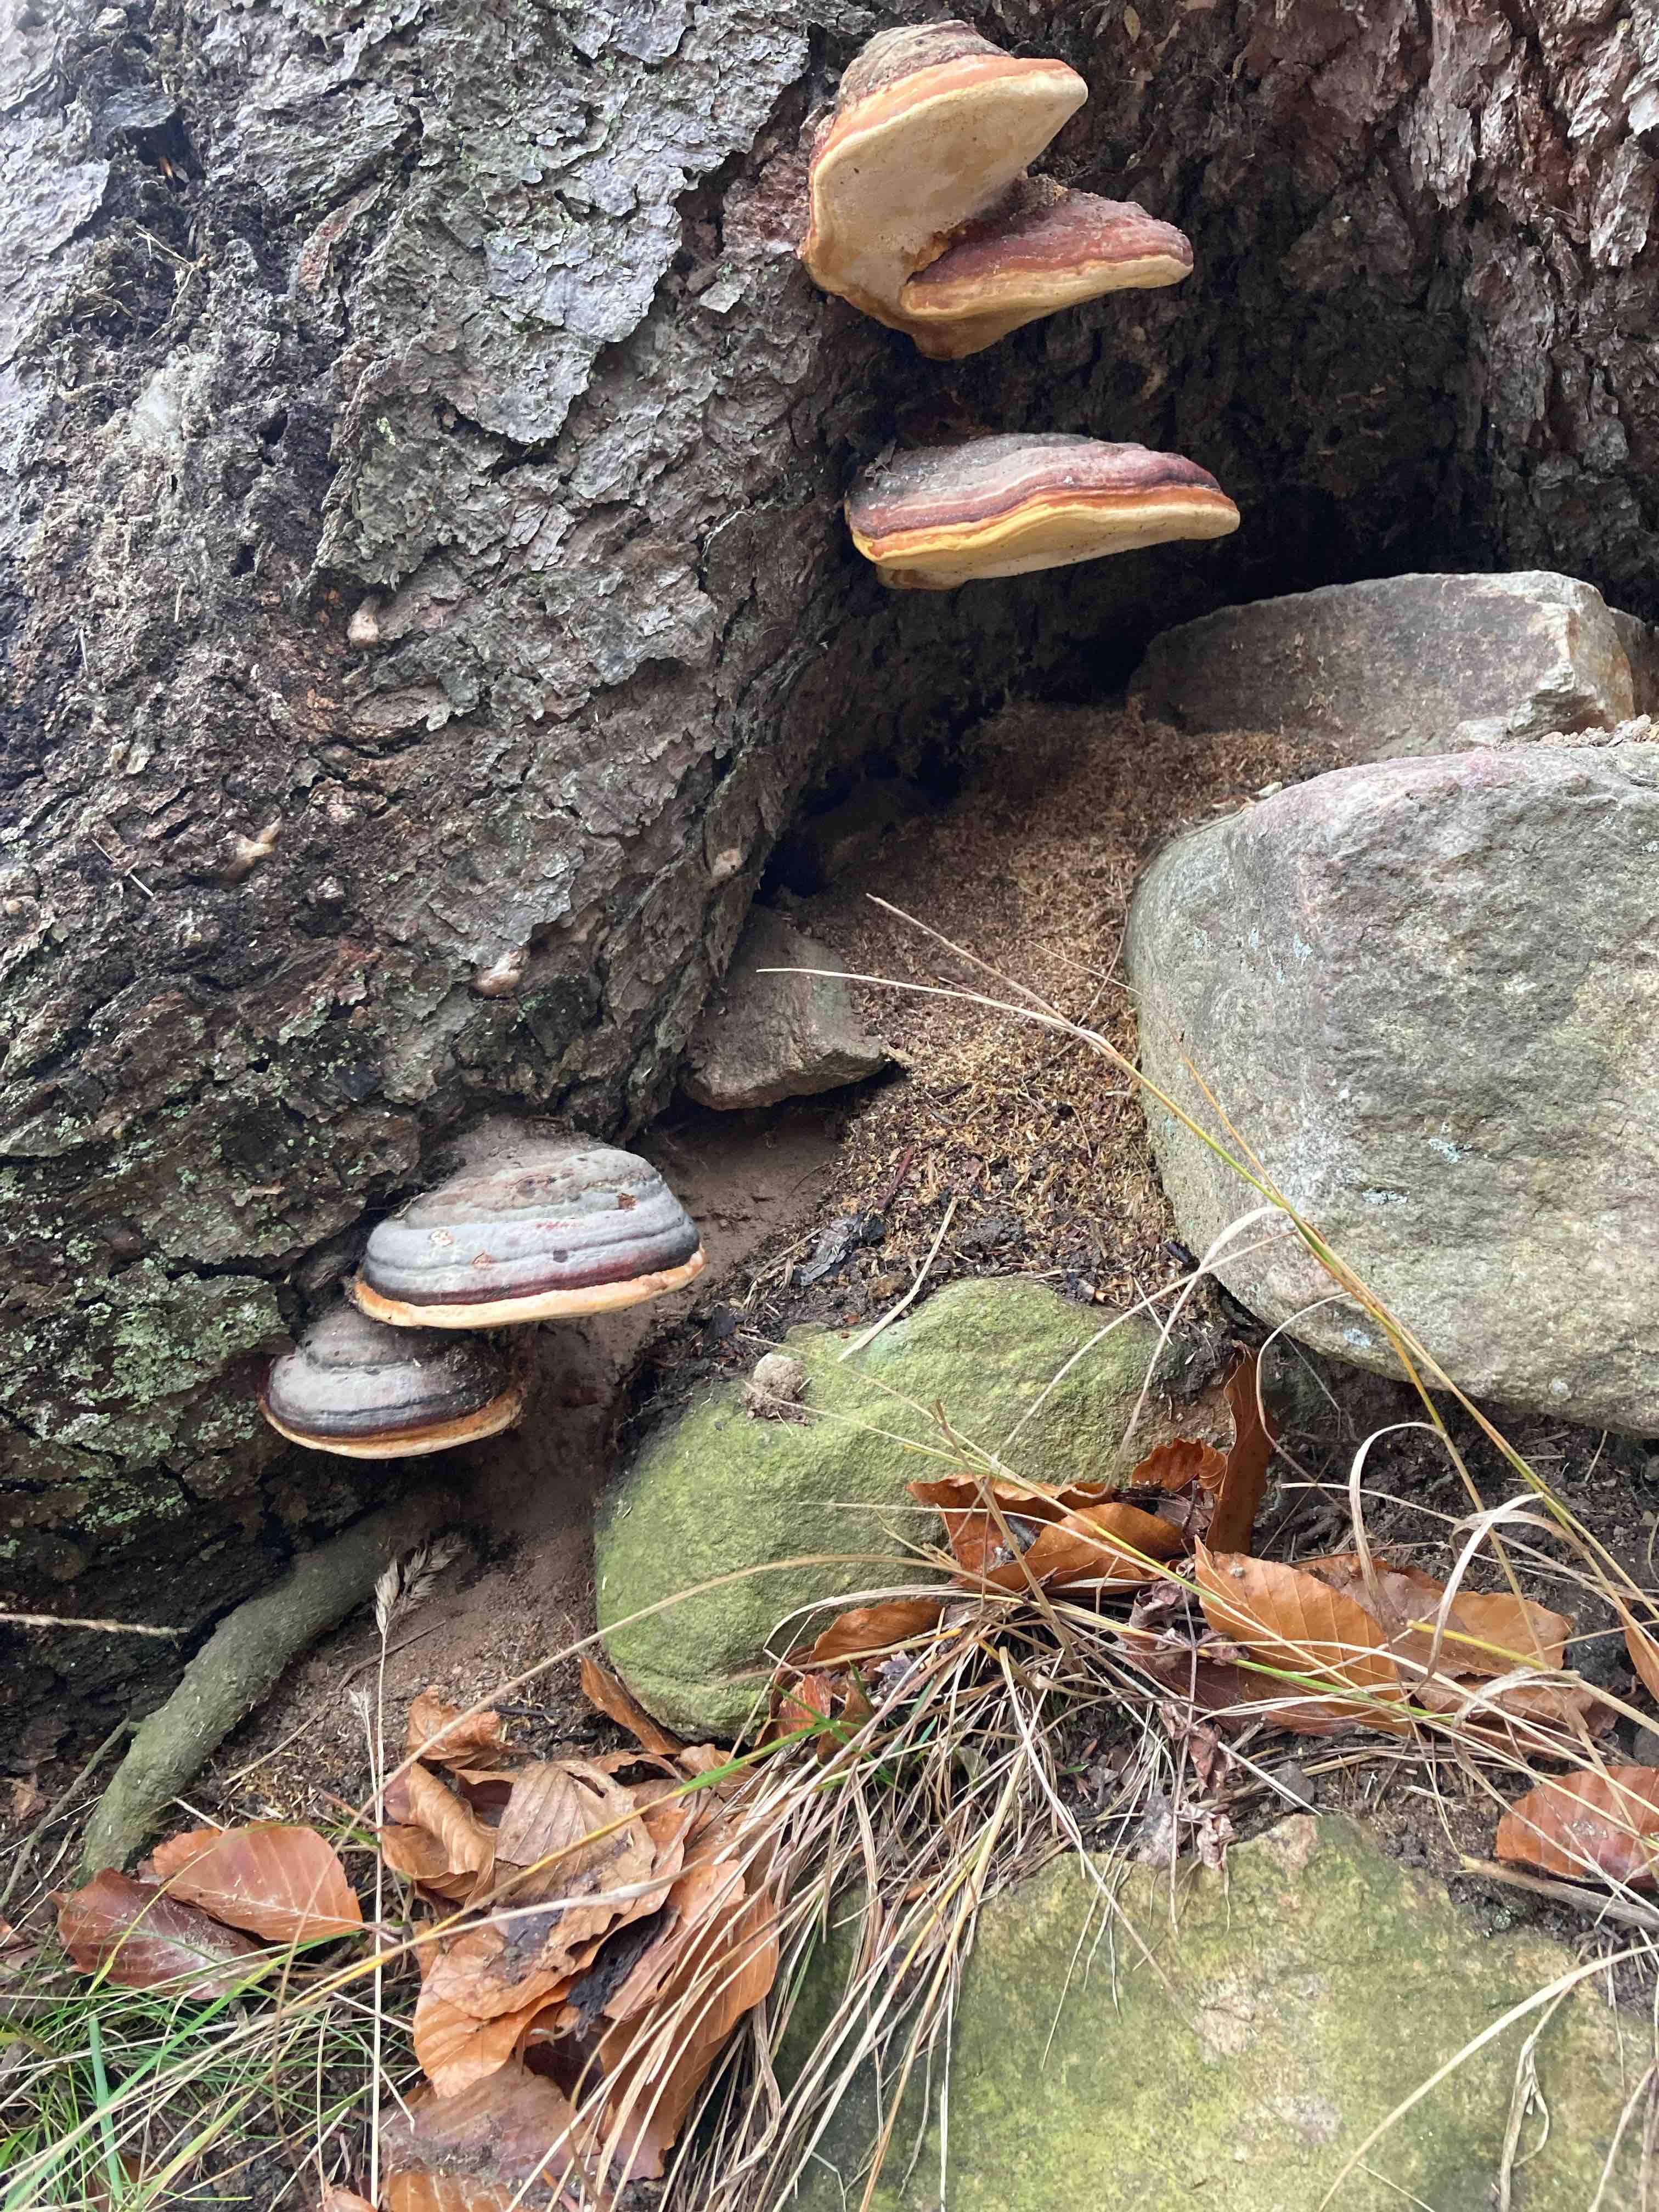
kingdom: Fungi
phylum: Basidiomycota
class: Agaricomycetes
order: Polyporales
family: Fomitopsidaceae
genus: Fomitopsis
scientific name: Fomitopsis pinicola
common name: randbæltet hovporesvamp
